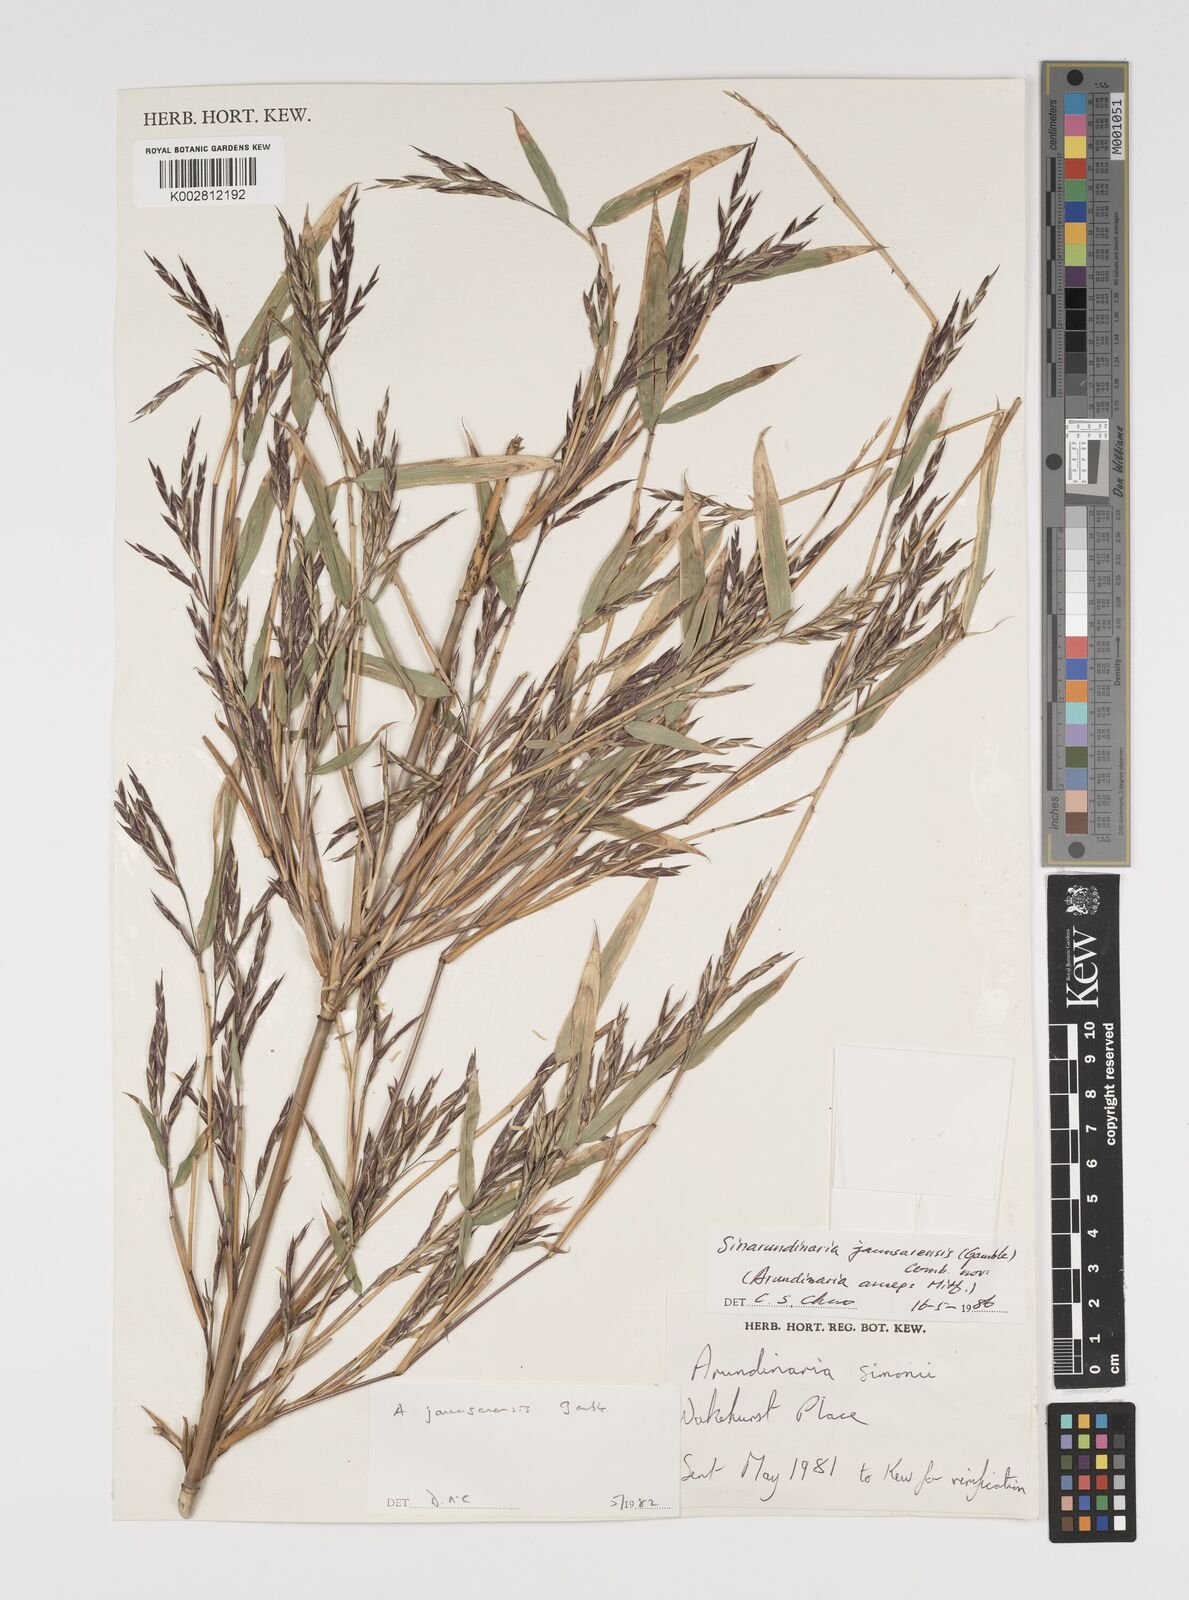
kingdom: Plantae
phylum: Tracheophyta
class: Liliopsida
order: Poales
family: Poaceae
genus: Yushania
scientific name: Yushania anceps
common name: Indian fountain-bamboo
